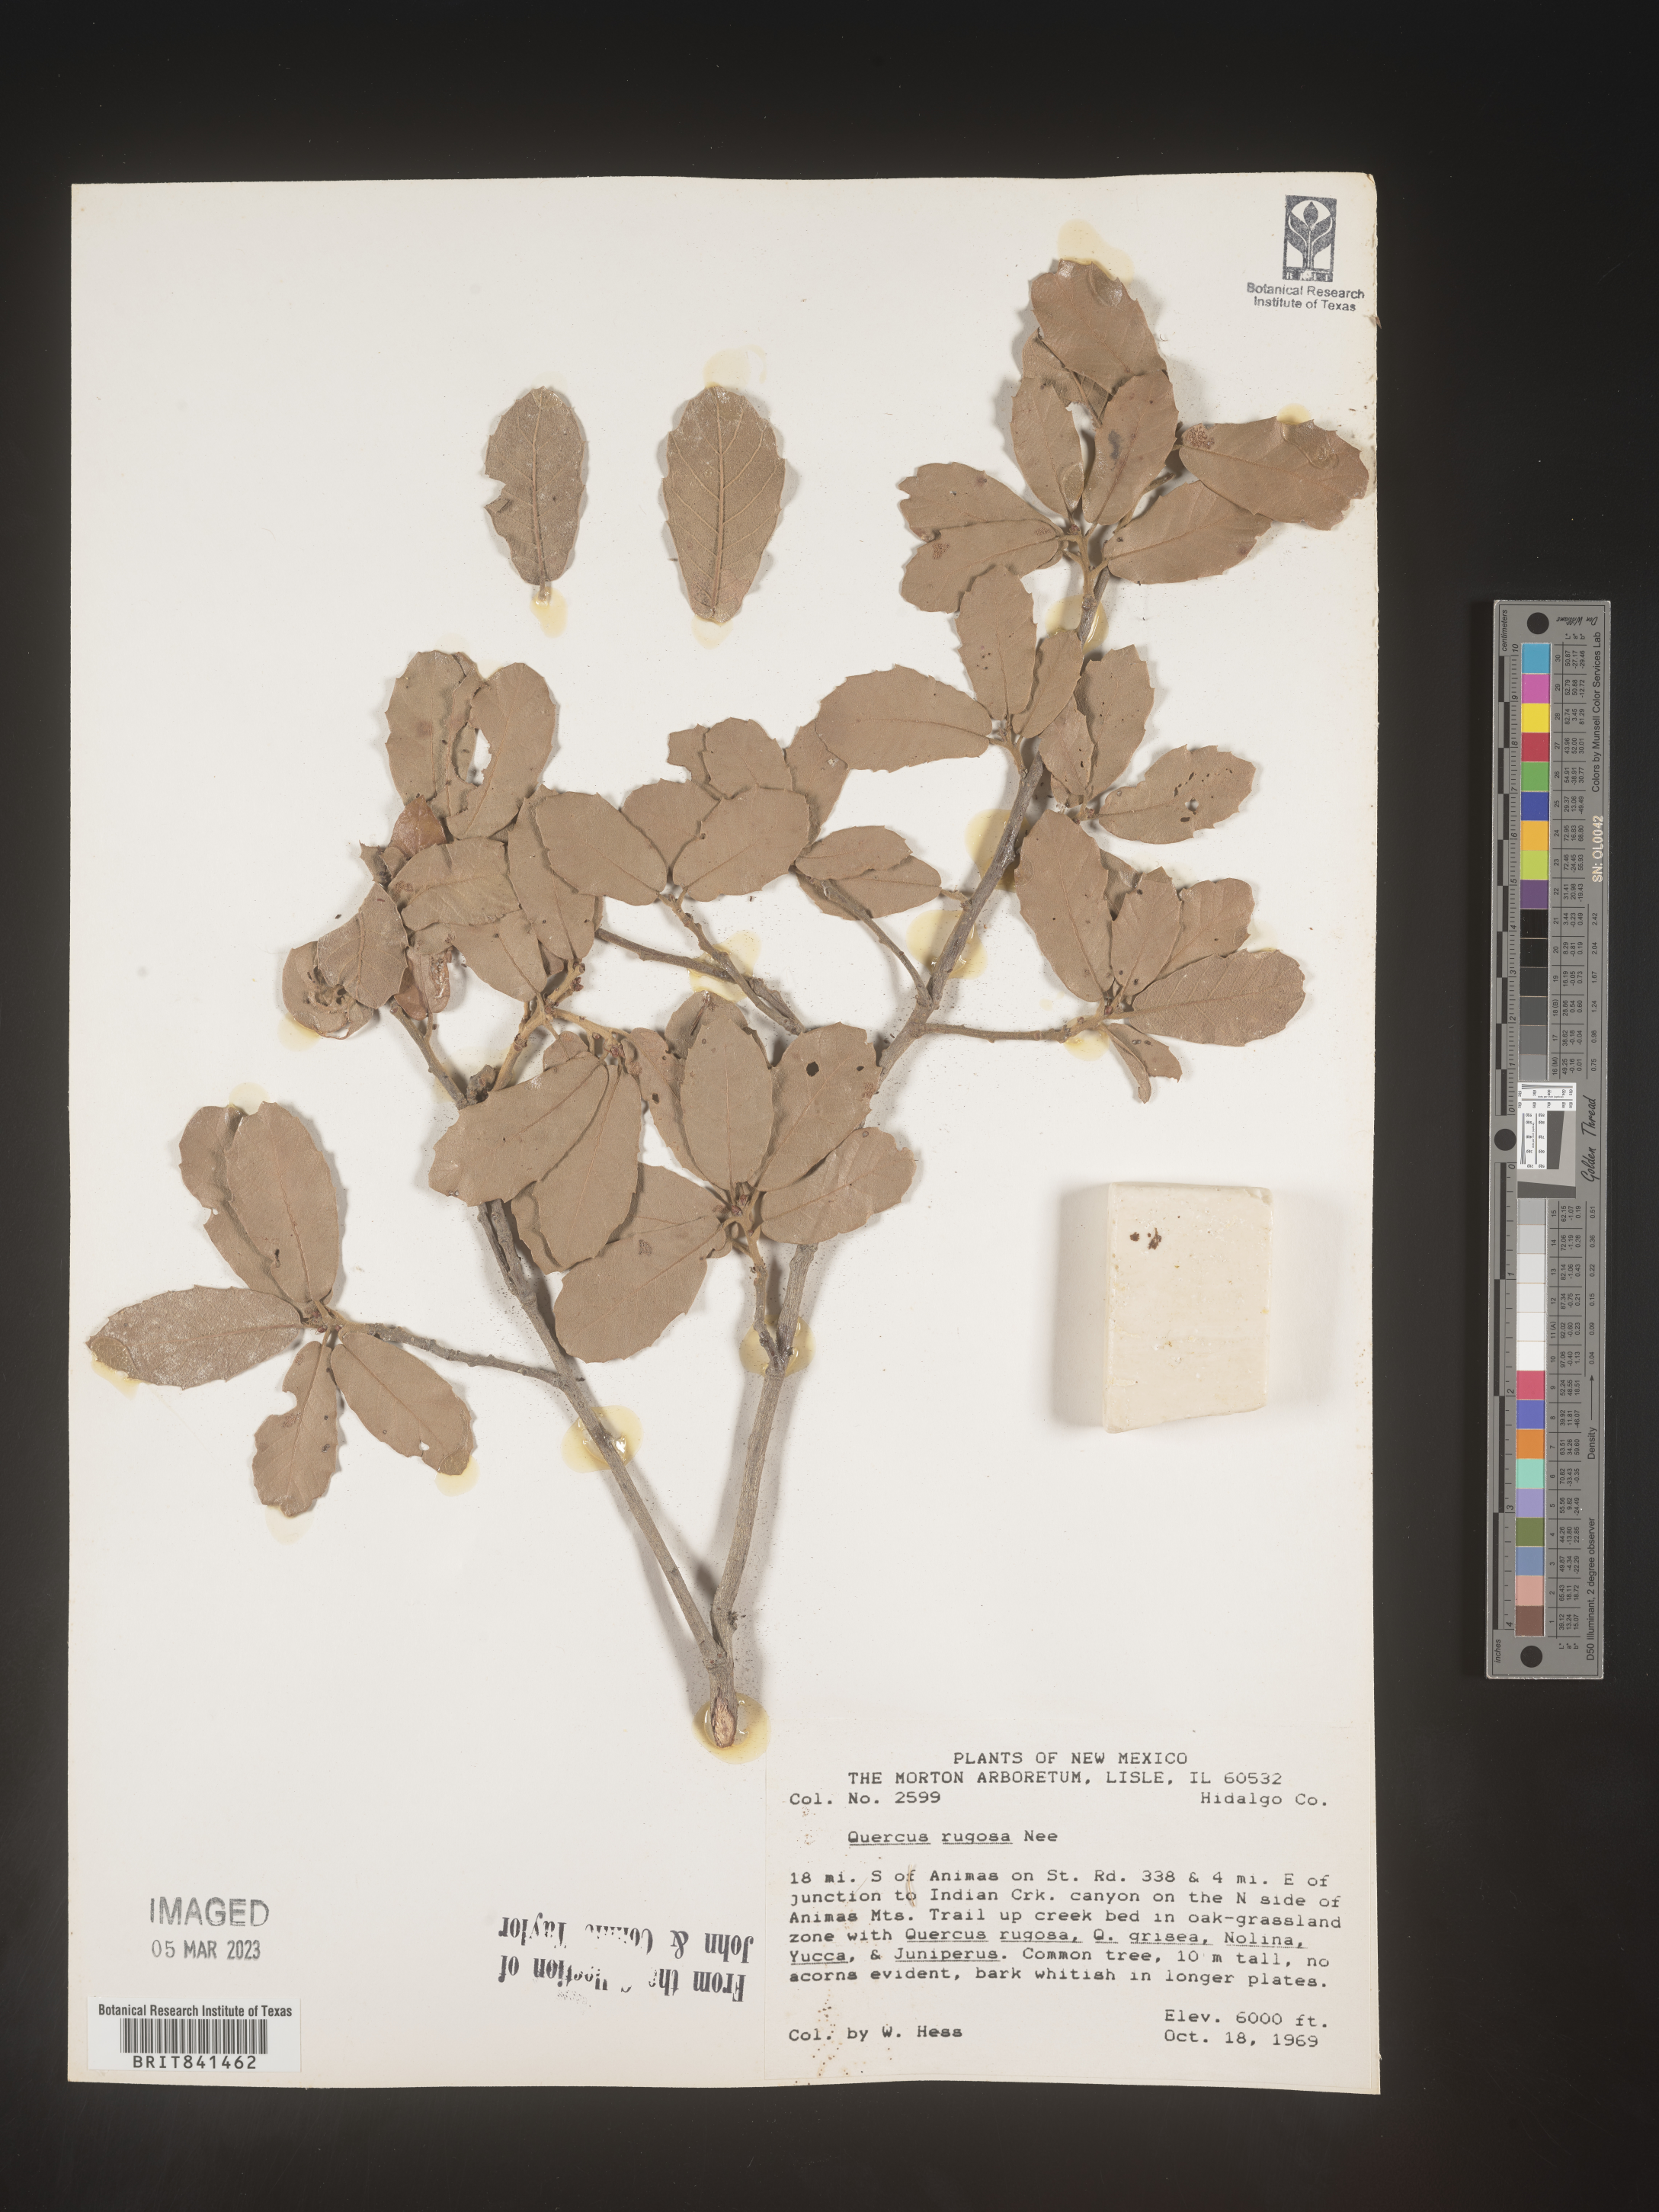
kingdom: Plantae
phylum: Tracheophyta
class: Magnoliopsida
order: Fagales
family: Fagaceae
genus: Quercus
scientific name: Quercus rugosa
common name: Netleaf oak
